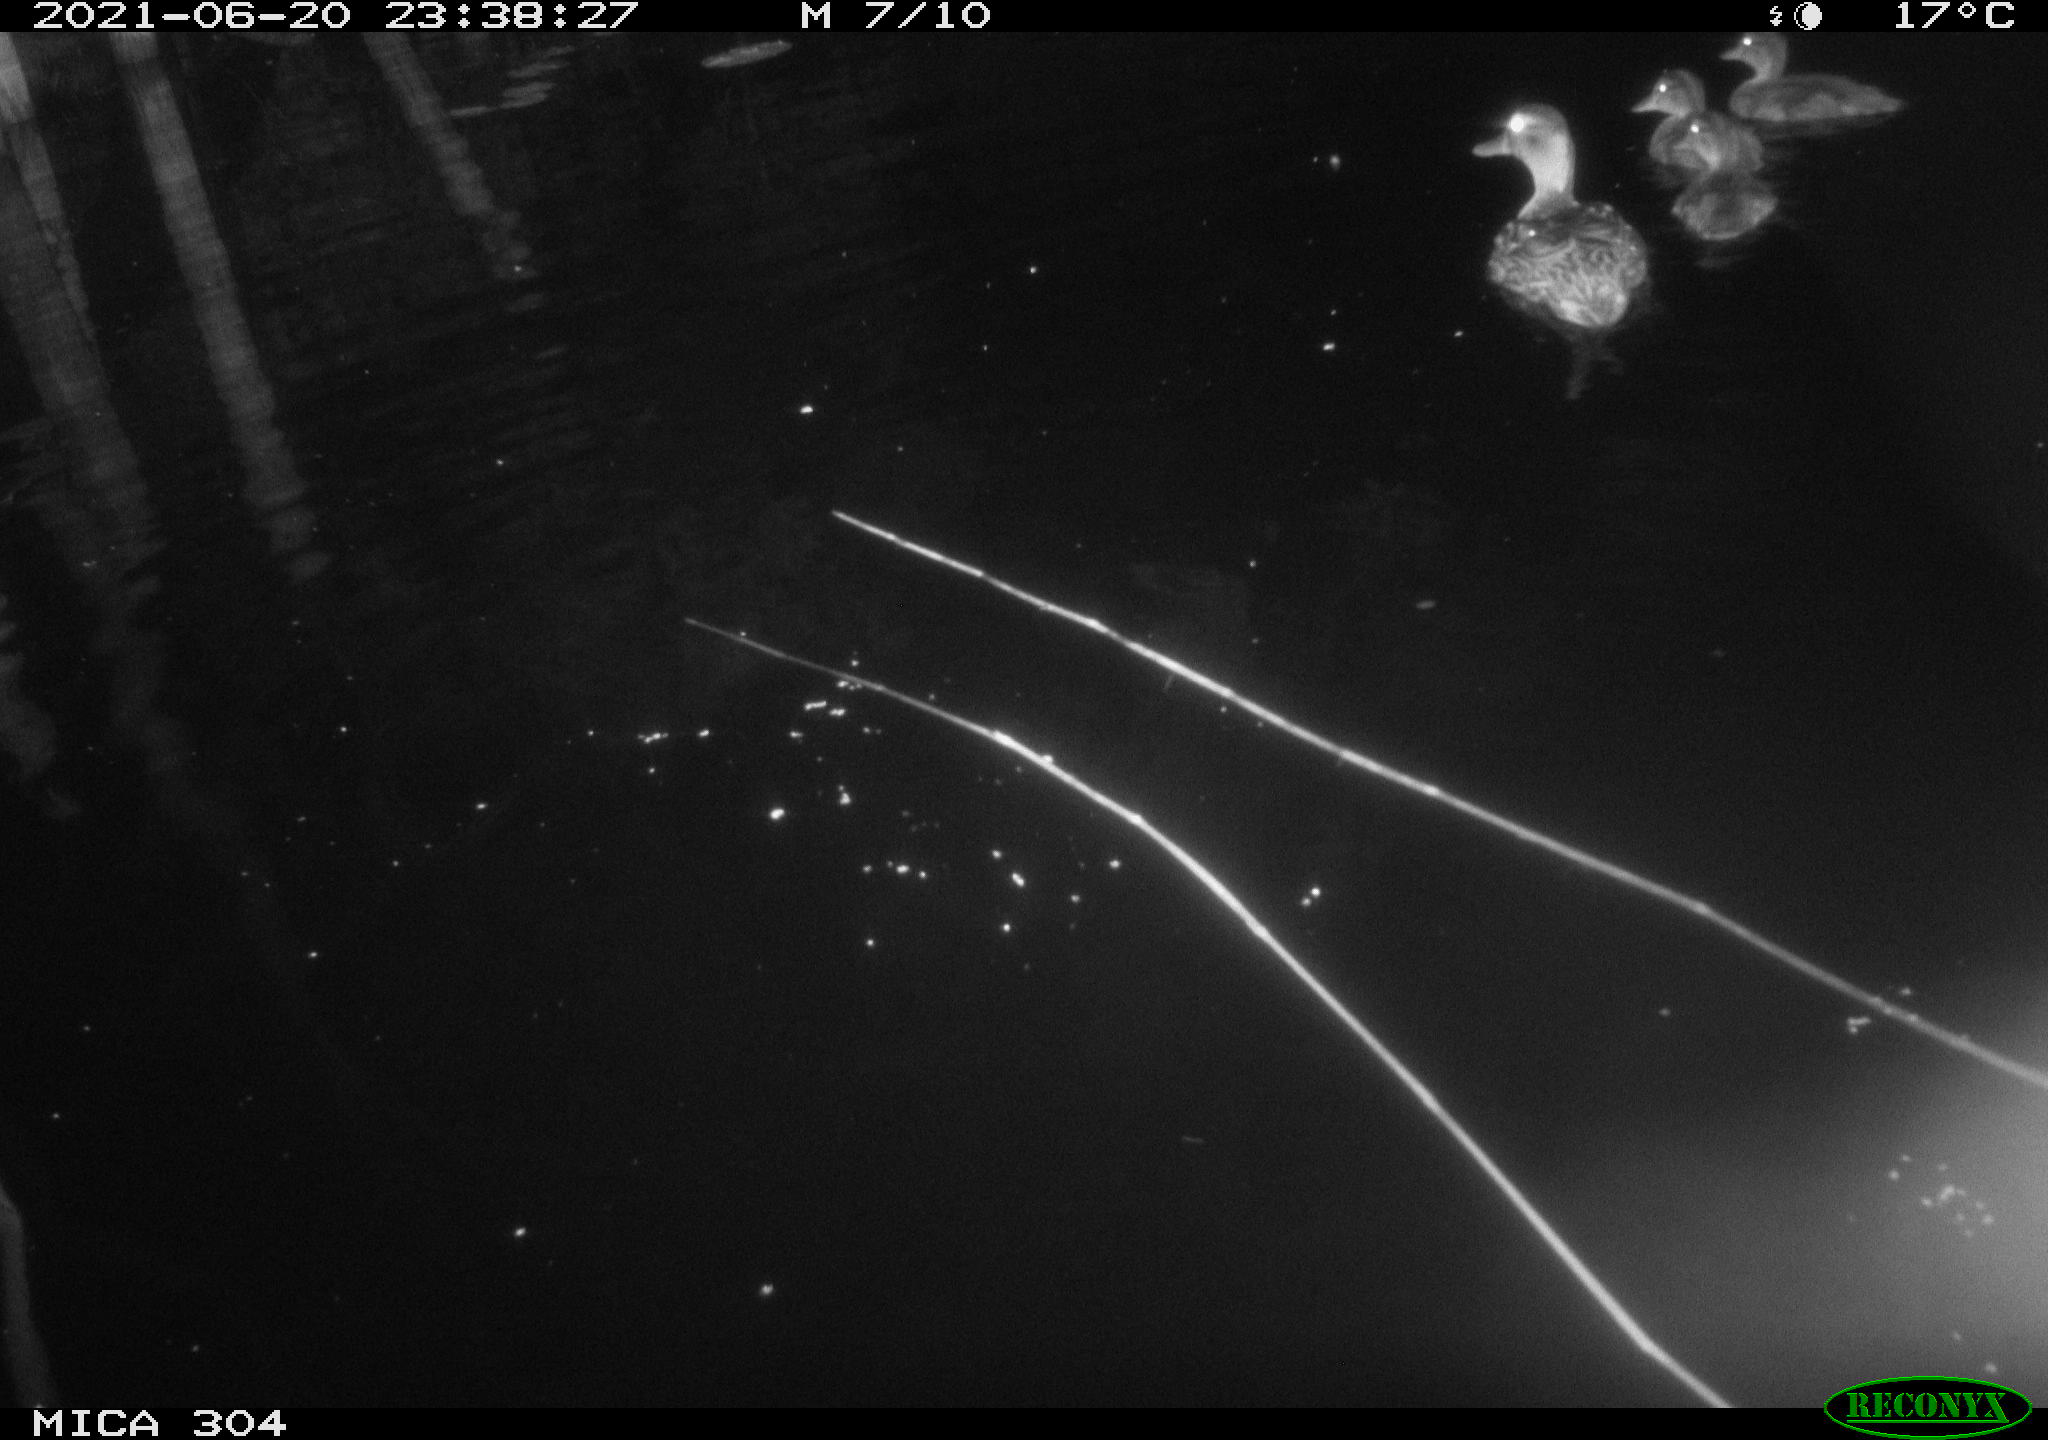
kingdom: Animalia
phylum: Chordata
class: Aves
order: Anseriformes
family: Anatidae
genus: Anas
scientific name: Anas platyrhynchos
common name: Mallard
